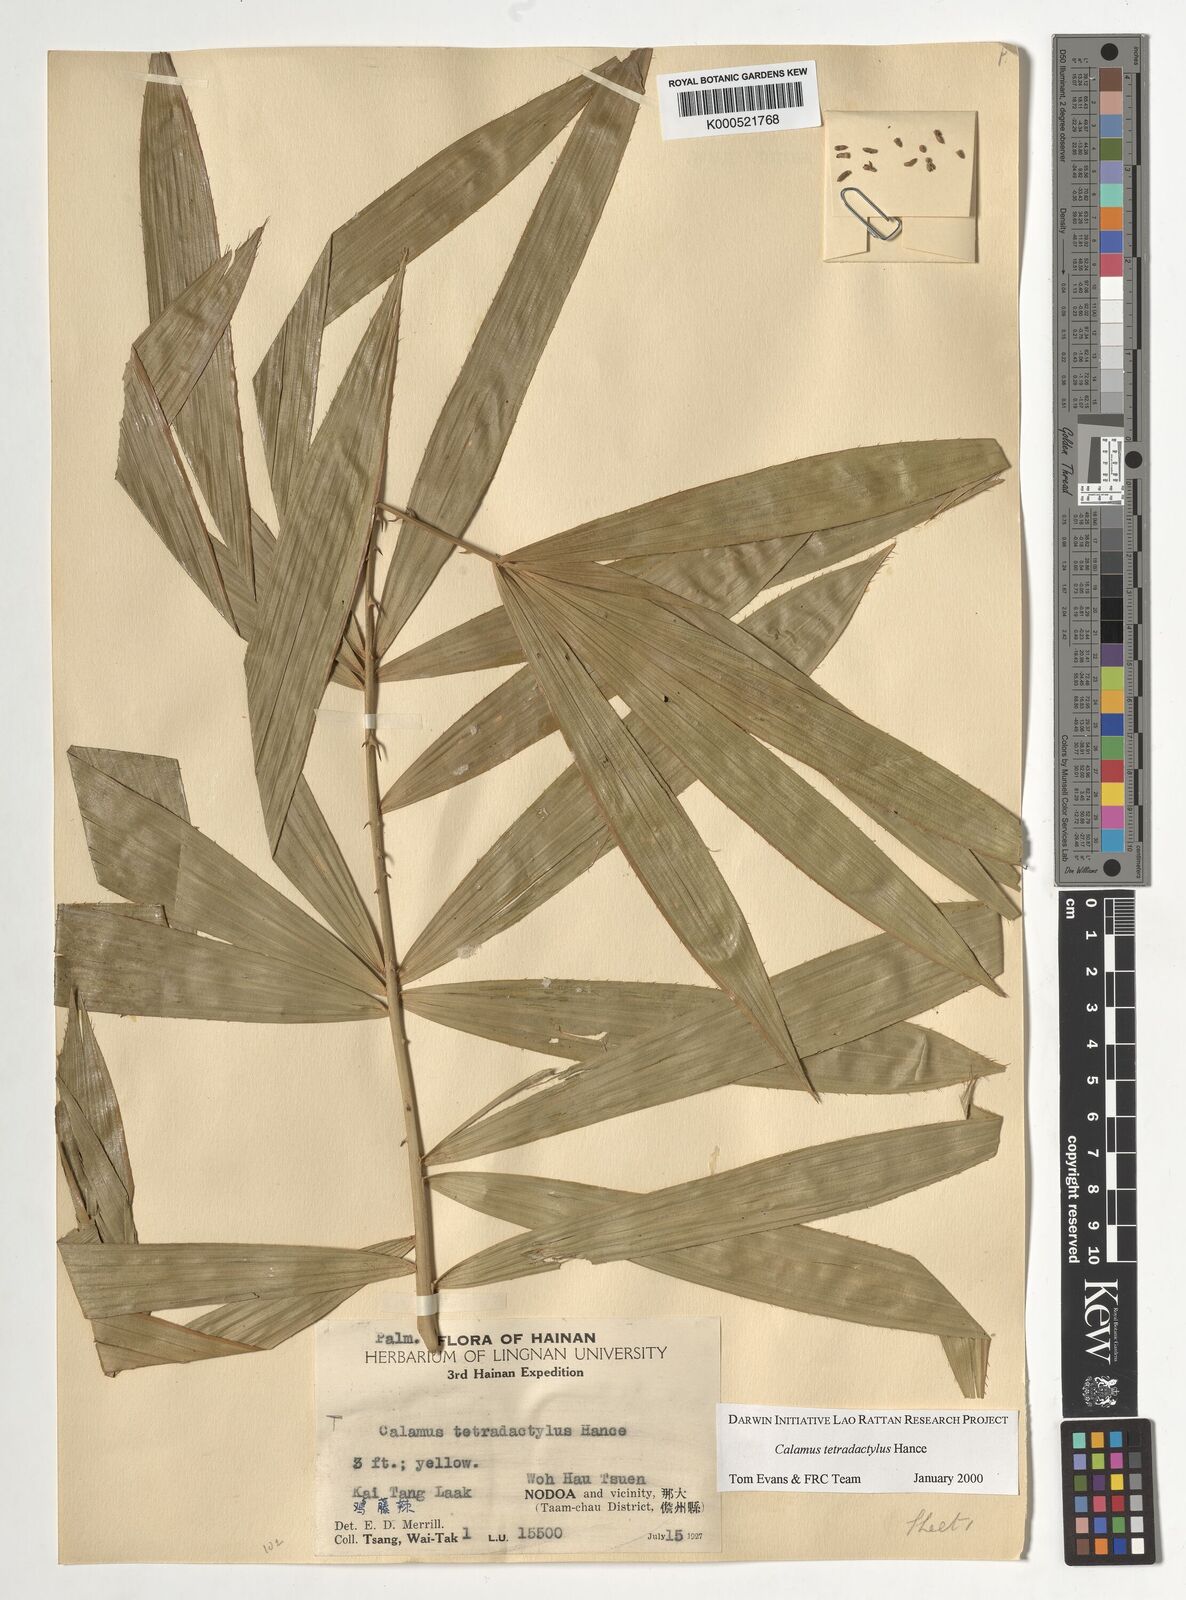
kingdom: Plantae
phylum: Tracheophyta
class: Liliopsida
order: Arecales
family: Arecaceae
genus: Calamus
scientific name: Calamus tetradactylus
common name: White rattan
